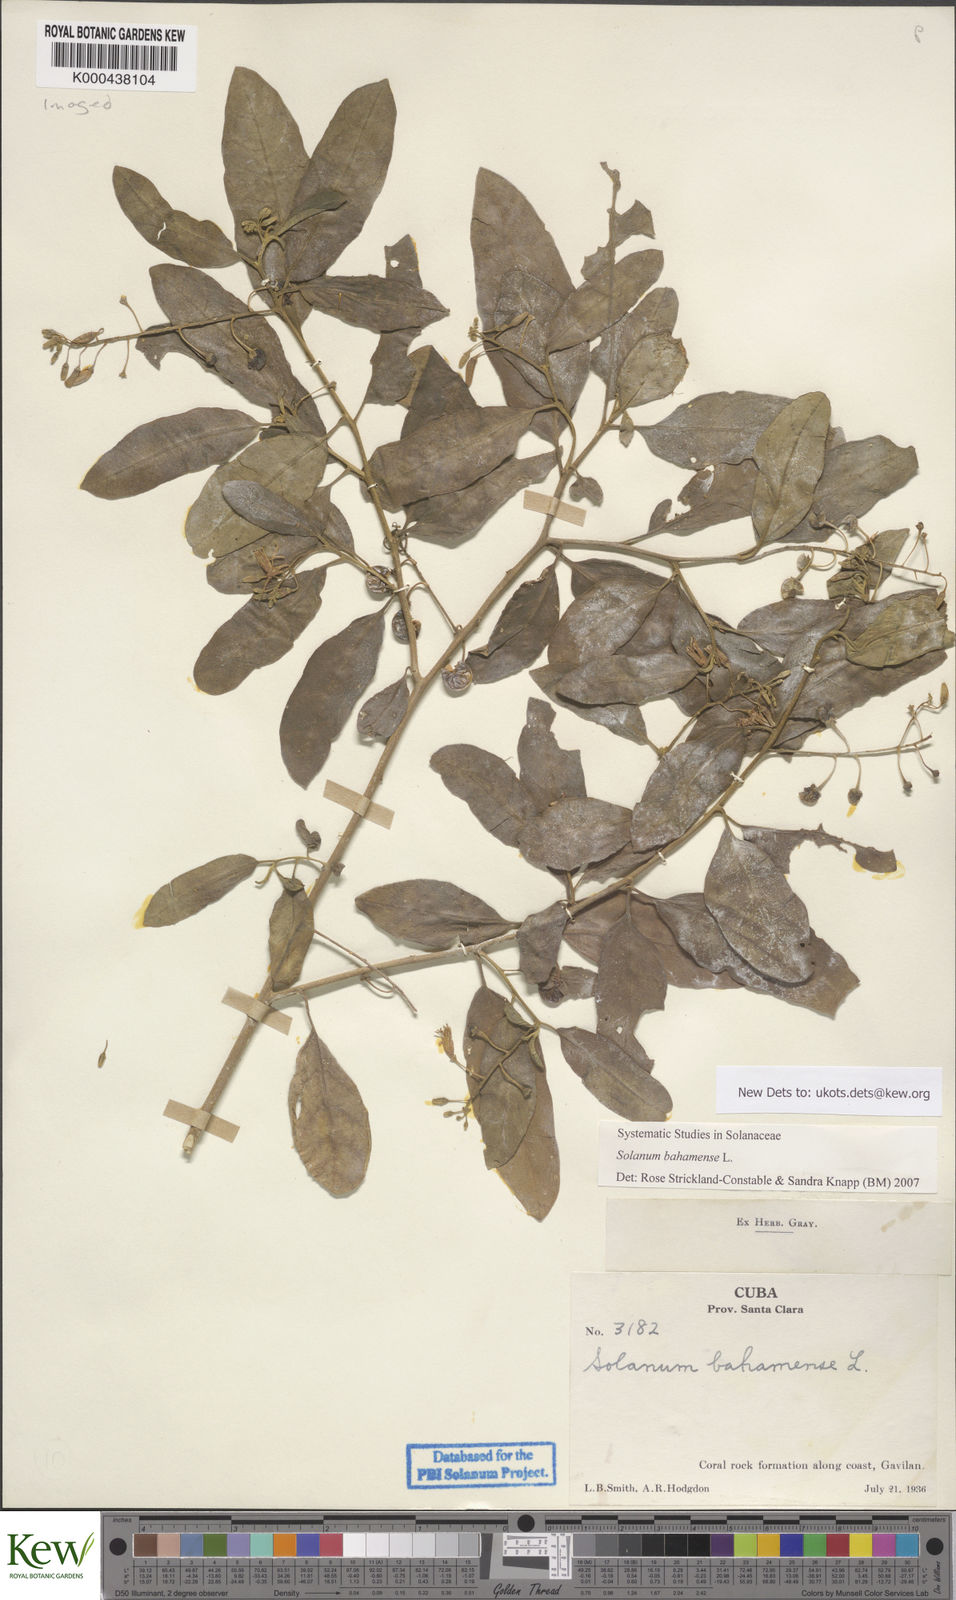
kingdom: Plantae
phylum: Tracheophyta
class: Magnoliopsida
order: Solanales
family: Solanaceae
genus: Solanum
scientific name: Solanum bahamense
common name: Canker-berry
